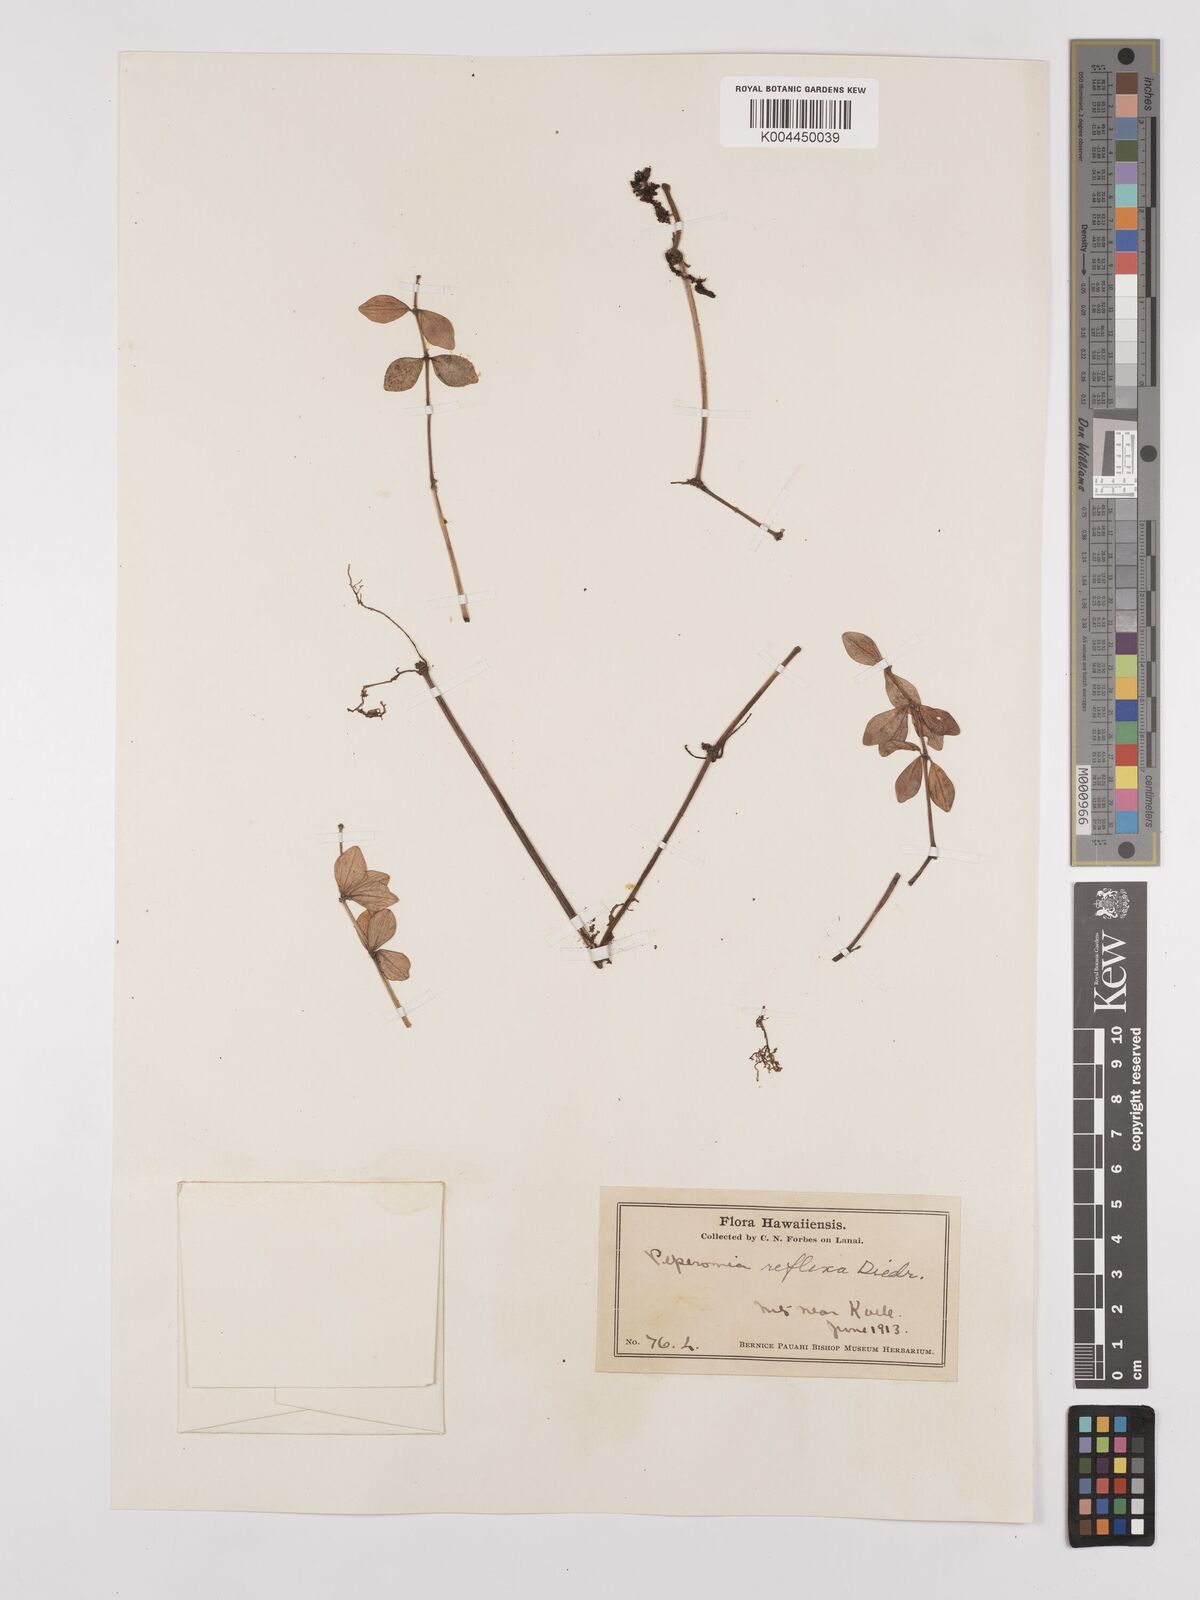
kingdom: Plantae
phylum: Tracheophyta
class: Magnoliopsida
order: Piperales
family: Piperaceae
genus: Peperomia
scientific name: Peperomia tetraphylla
